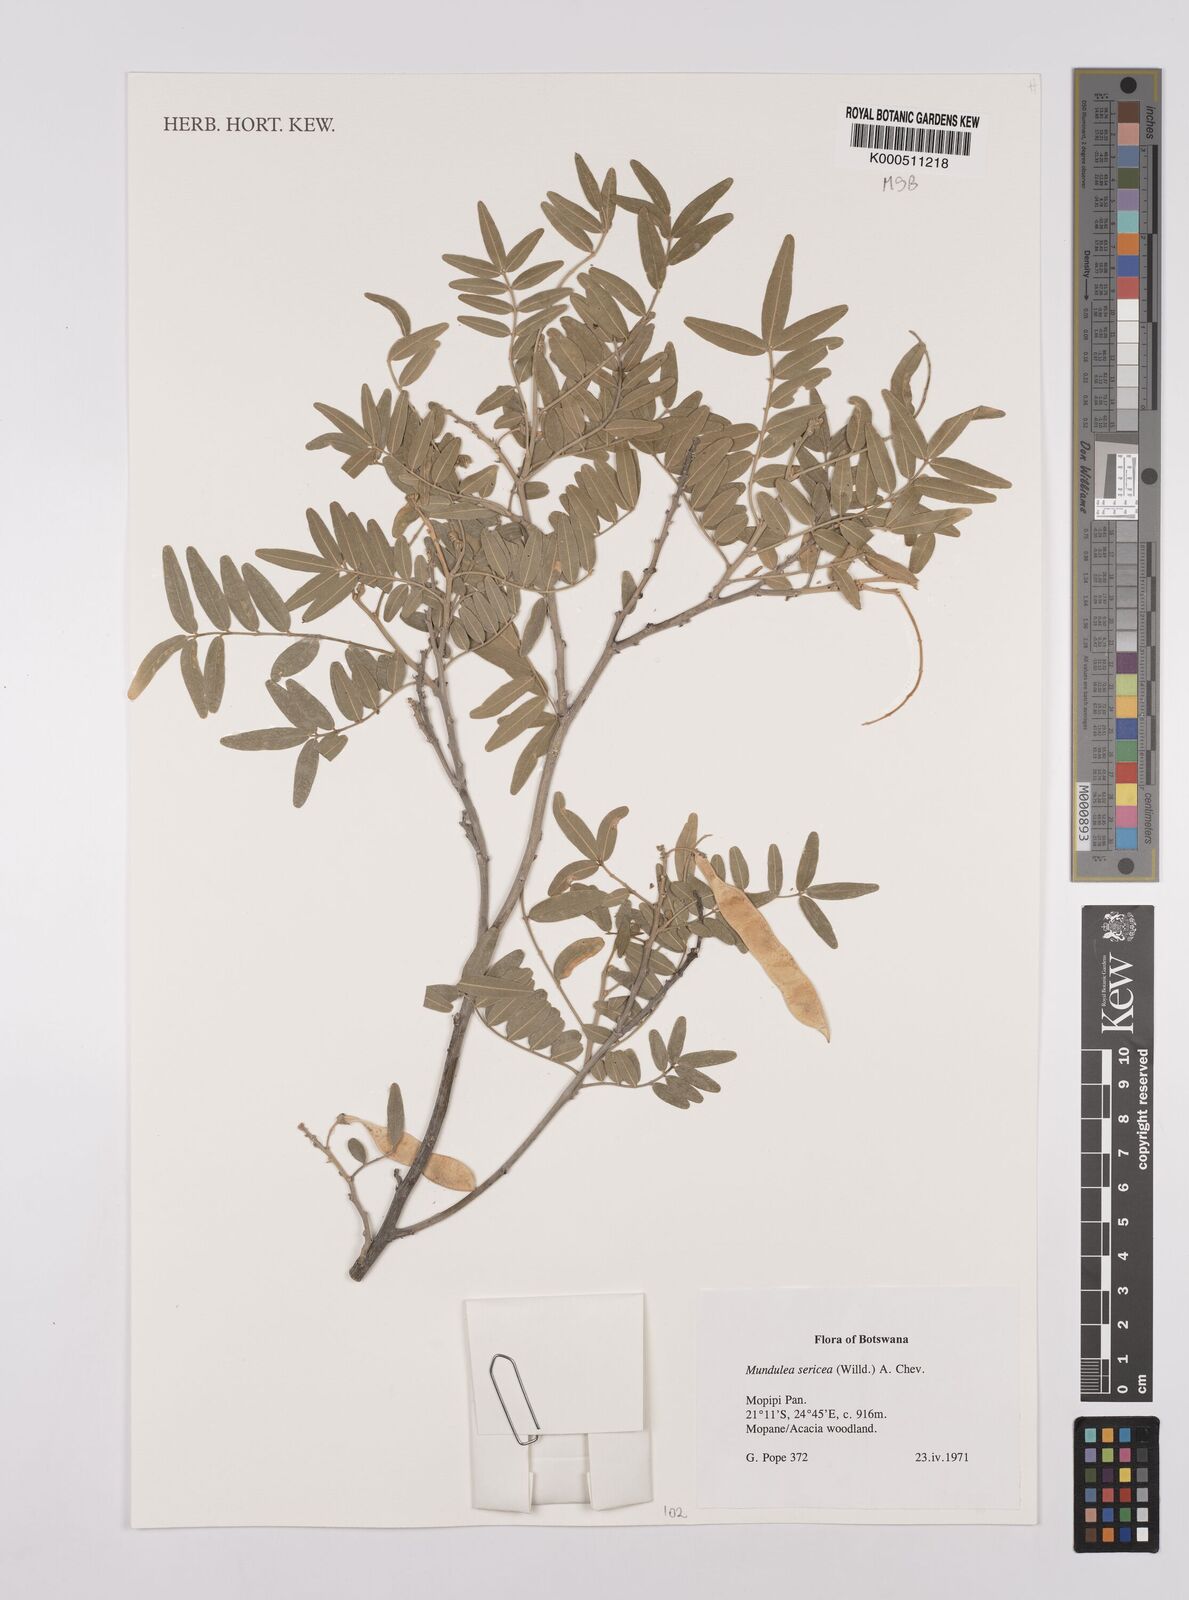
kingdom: Plantae
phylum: Tracheophyta
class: Magnoliopsida
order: Fabales
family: Fabaceae
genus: Mundulea
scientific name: Mundulea sericea
